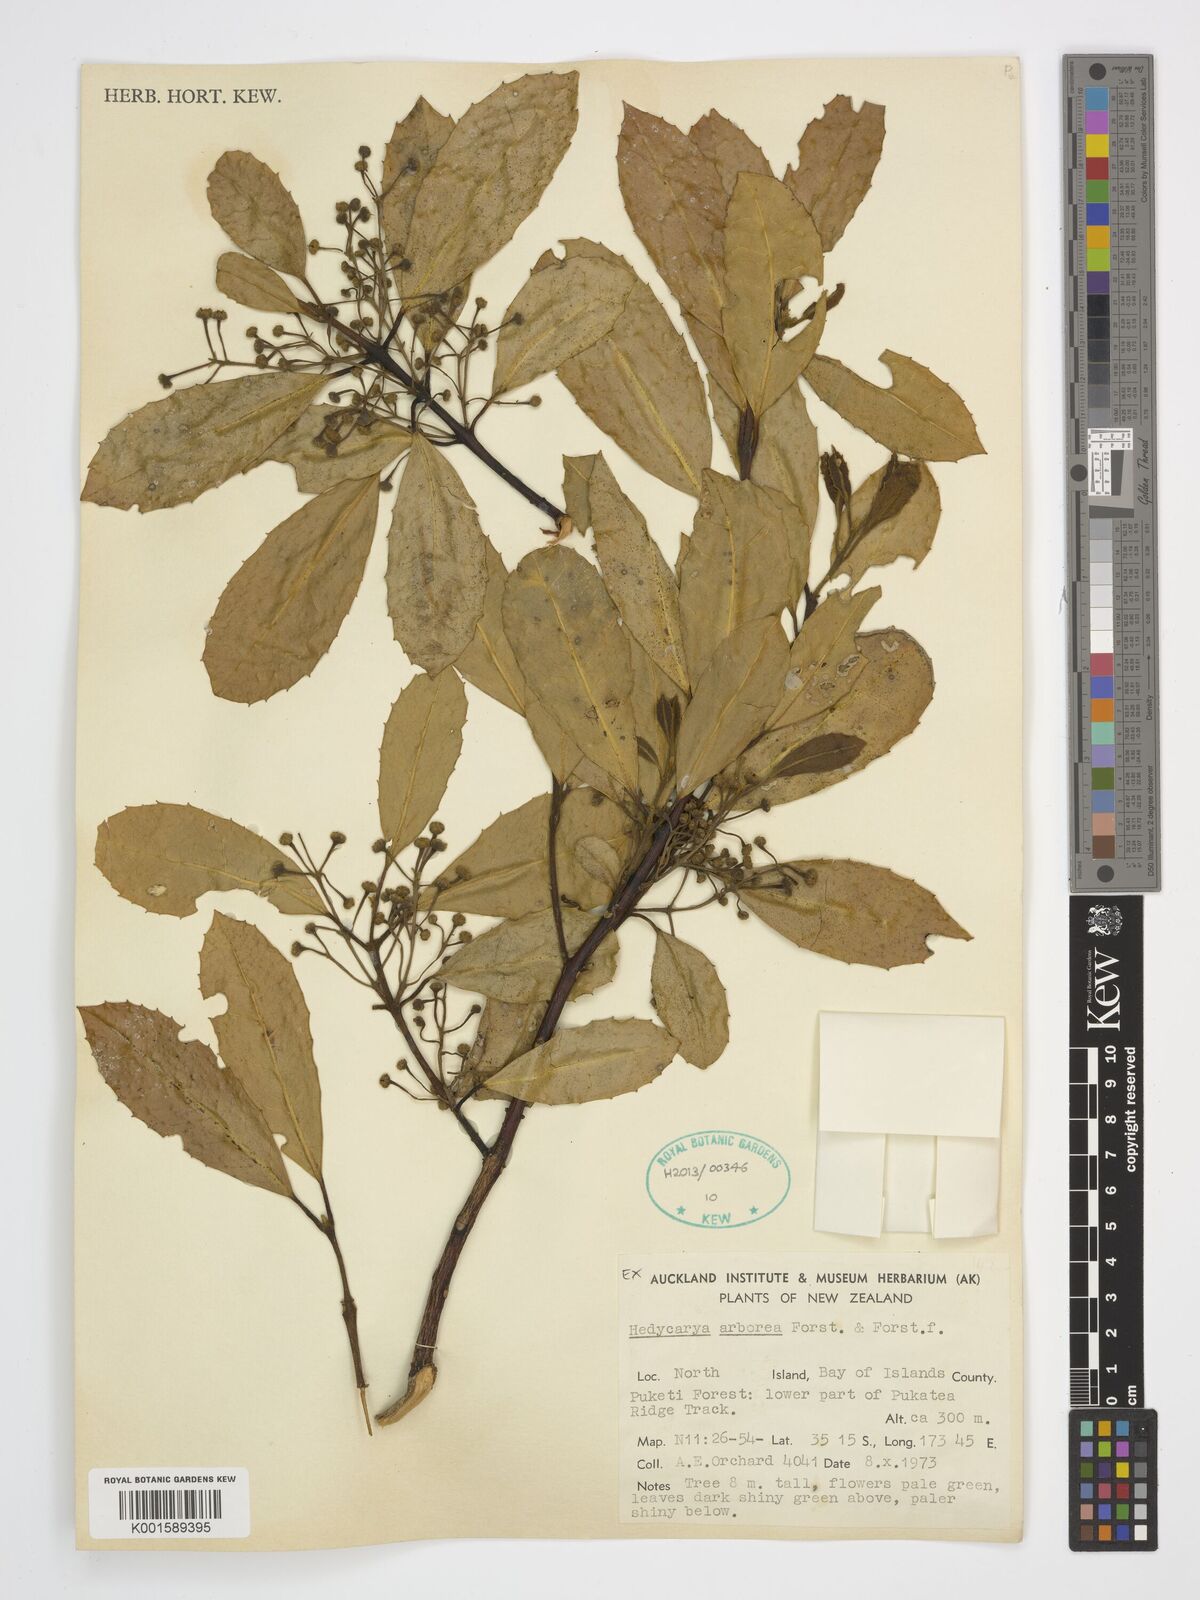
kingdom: Plantae
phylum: Tracheophyta
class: Magnoliopsida
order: Laurales
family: Monimiaceae
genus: Hedycarya
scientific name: Hedycarya arborea
